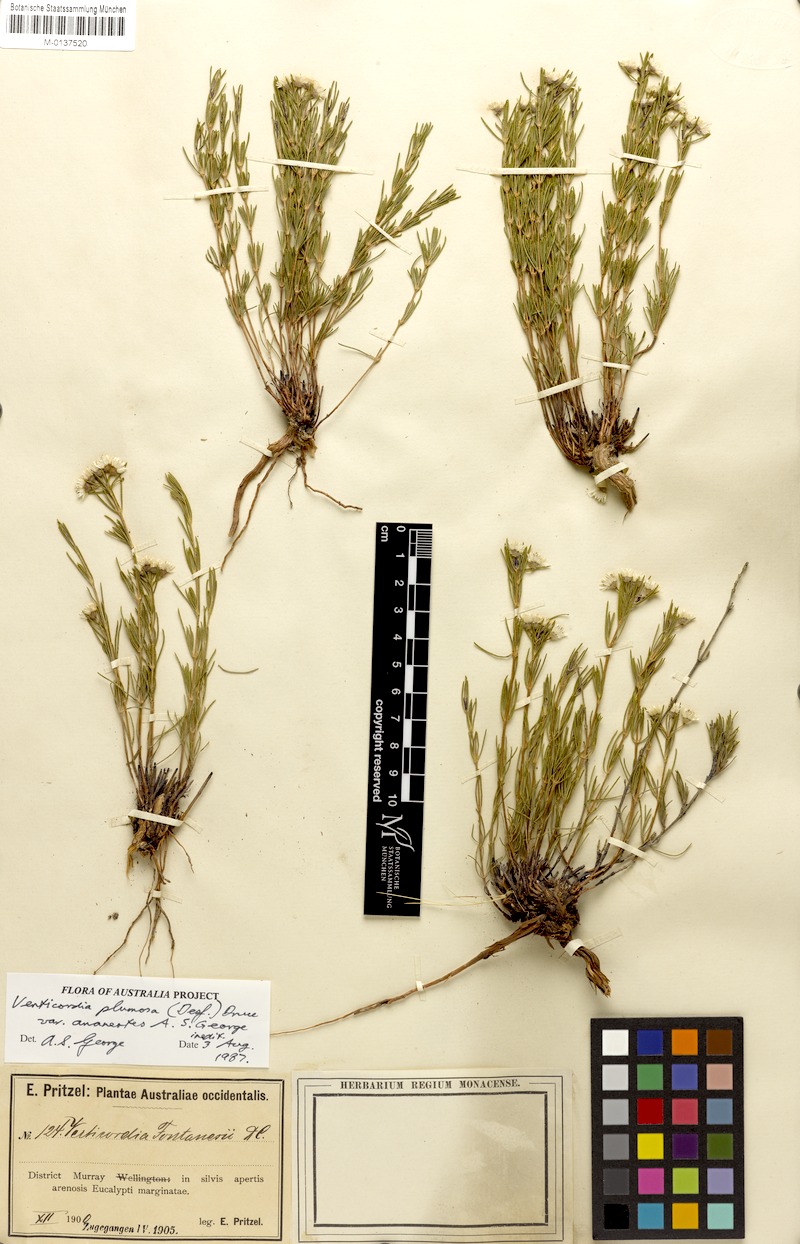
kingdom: Plantae
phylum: Tracheophyta
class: Magnoliopsida
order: Myrtales
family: Myrtaceae
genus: Verticordia
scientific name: Verticordia plumosa
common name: Plume feather-flower
